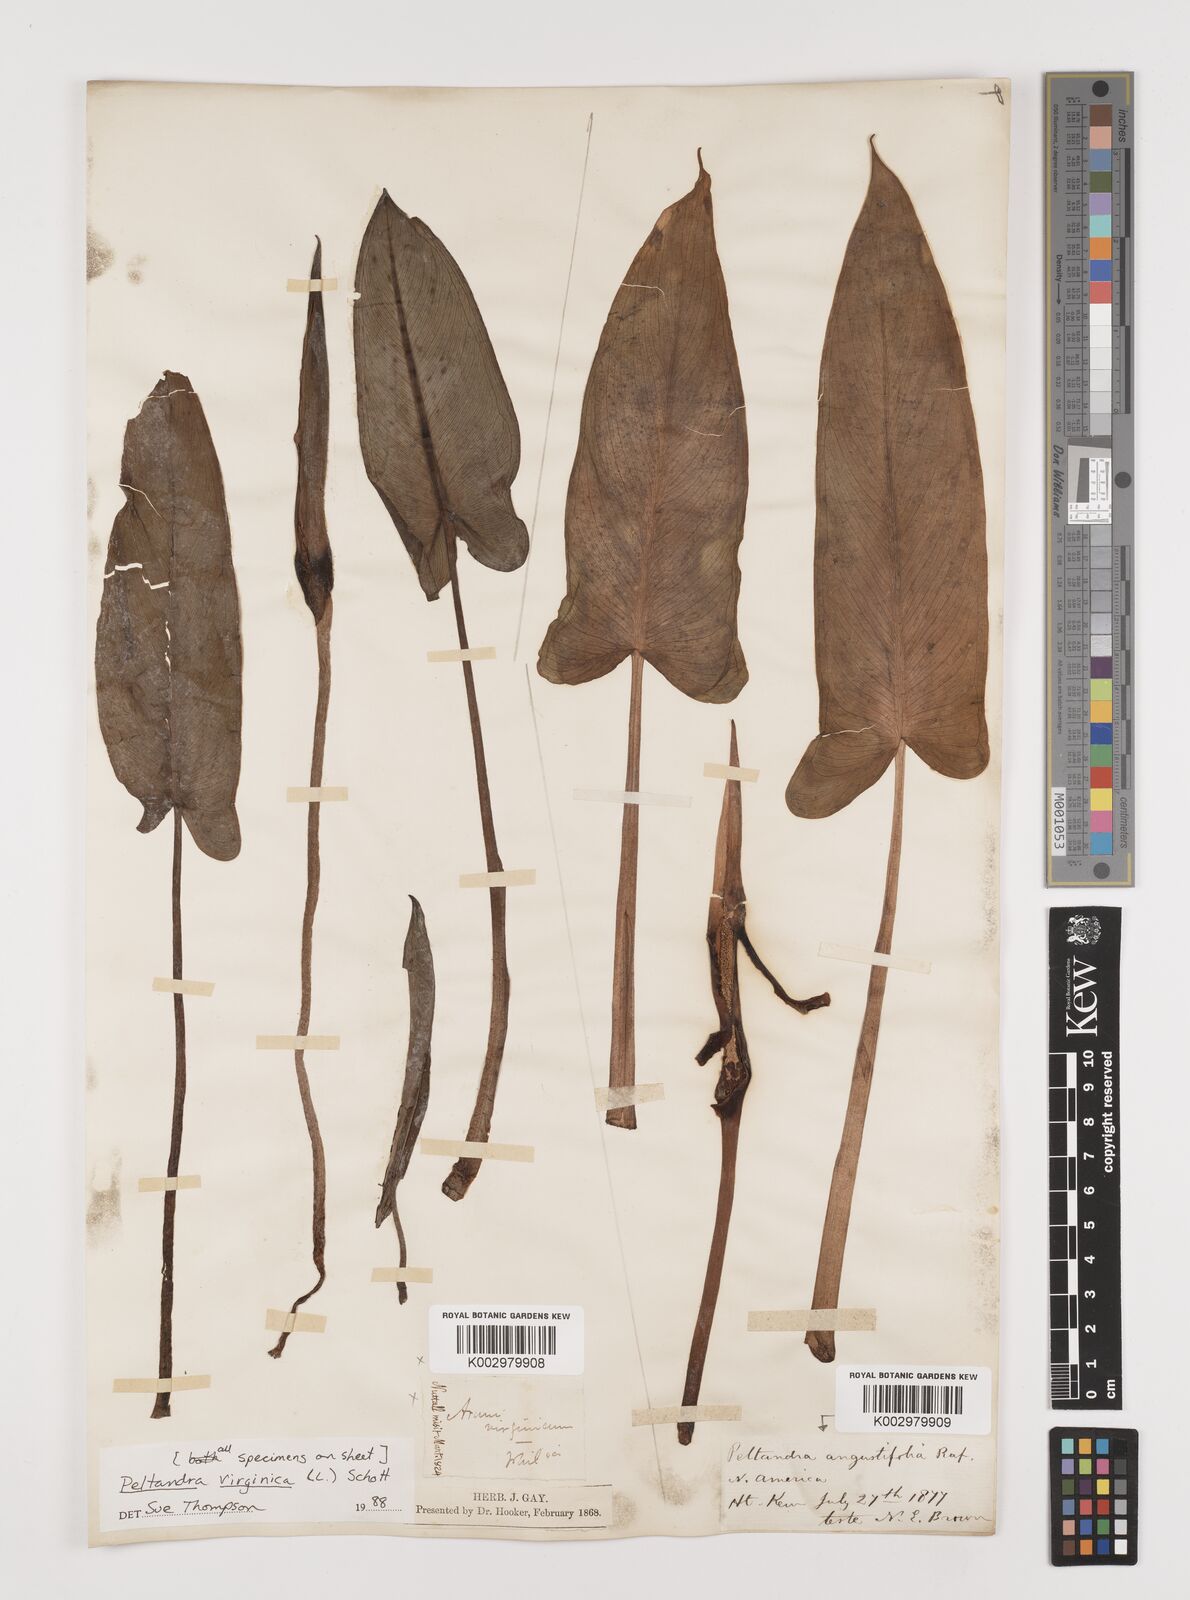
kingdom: Plantae
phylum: Tracheophyta
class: Liliopsida
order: Alismatales
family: Araceae
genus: Peltandra
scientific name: Peltandra virginica
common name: Arrow arum
